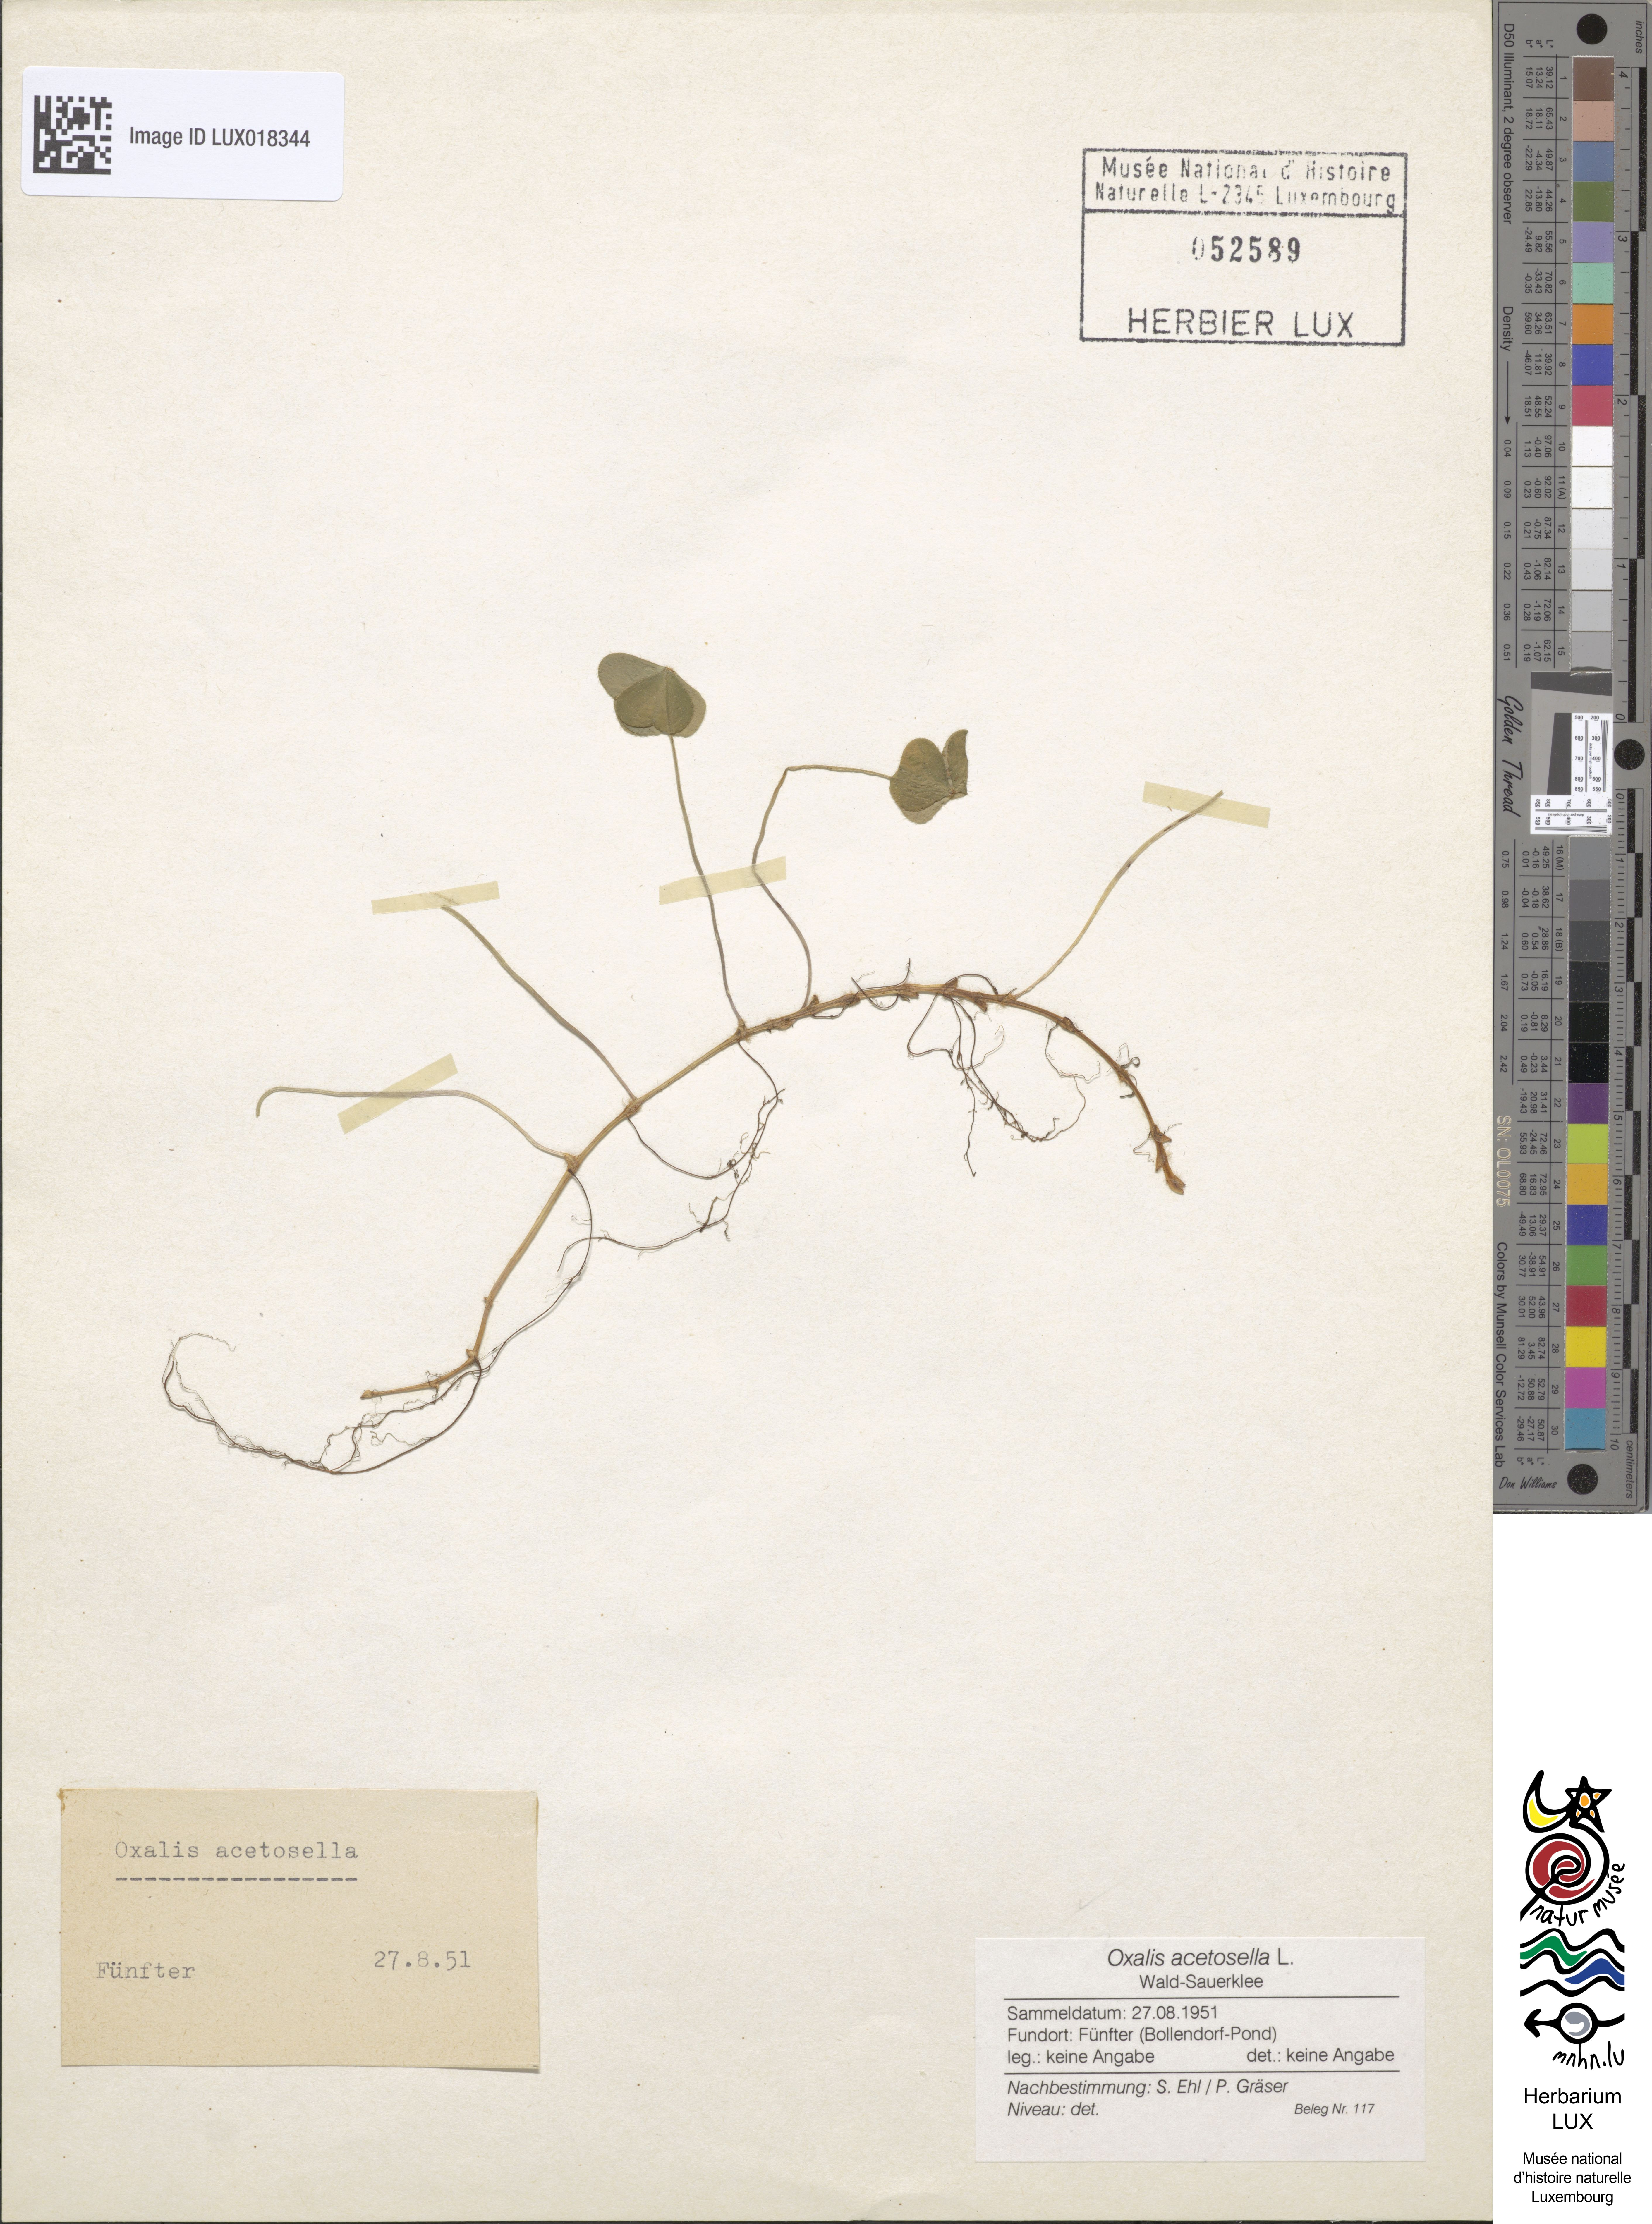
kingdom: Plantae
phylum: Tracheophyta
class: Magnoliopsida
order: Oxalidales
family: Oxalidaceae
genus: Oxalis
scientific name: Oxalis acetosella
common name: Wood-sorrel
